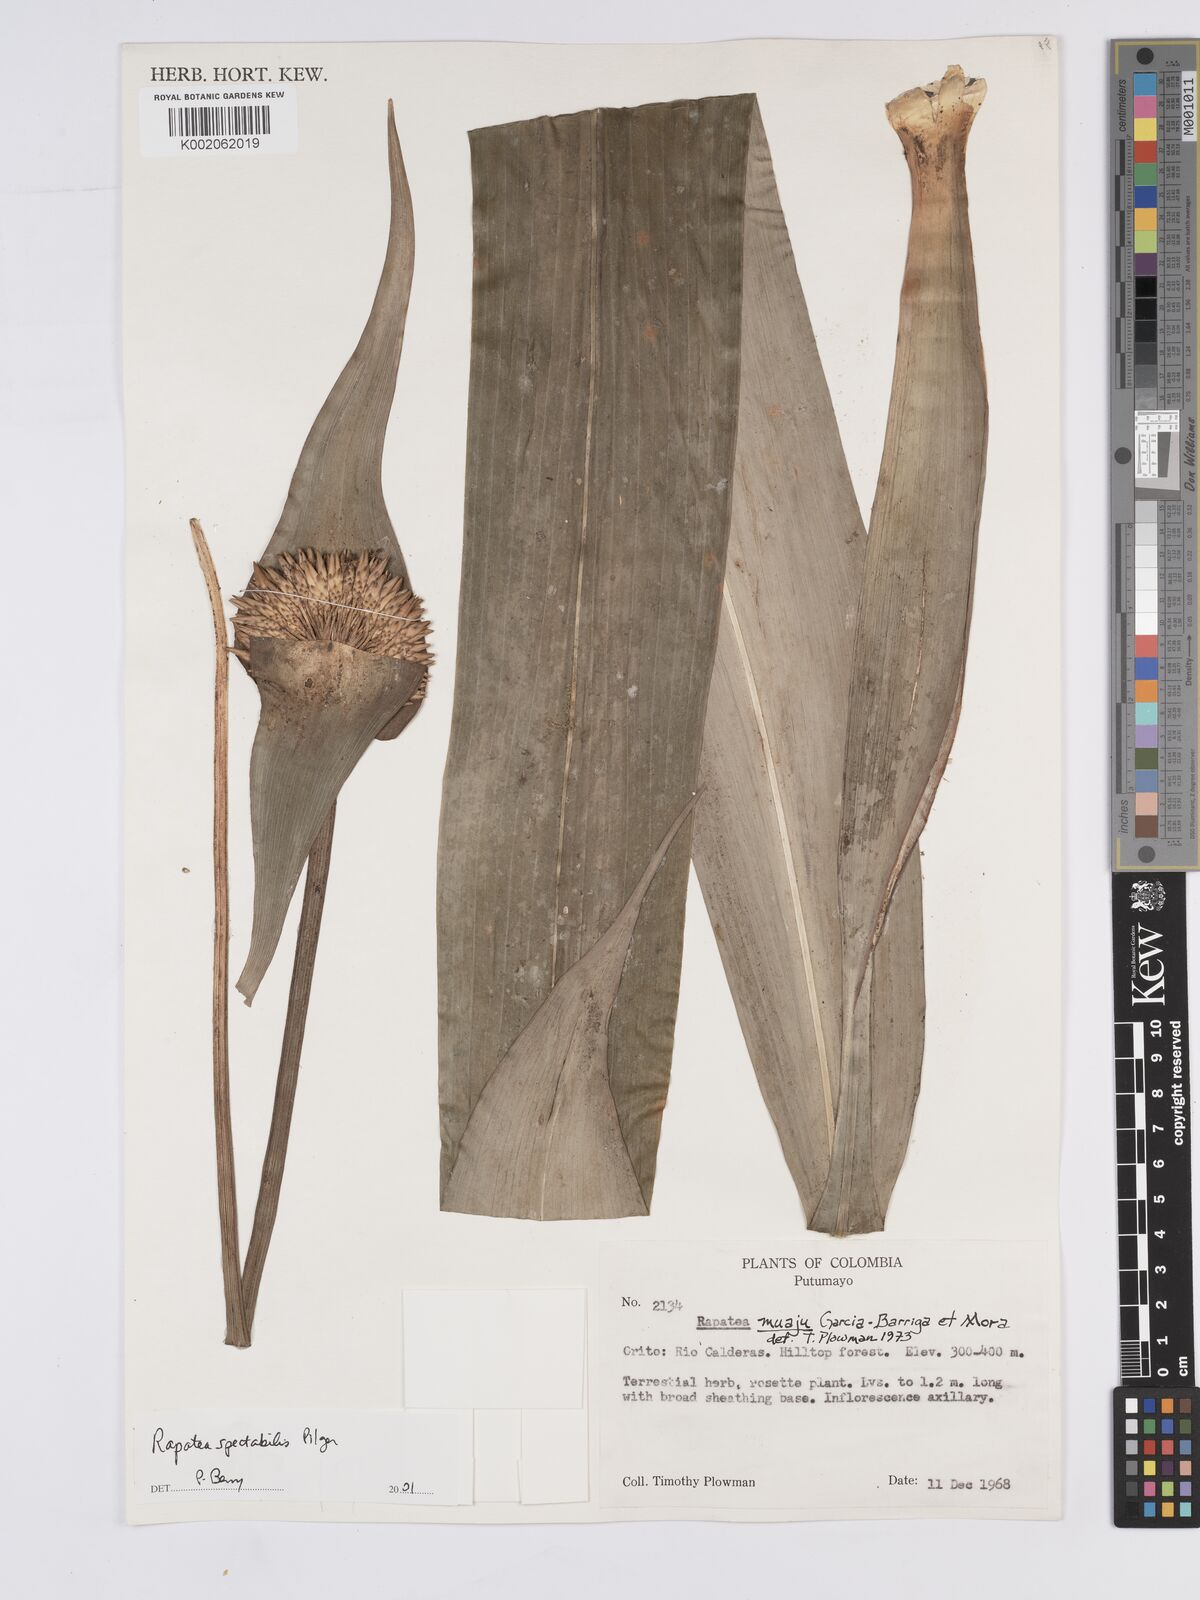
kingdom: Plantae
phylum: Tracheophyta
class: Liliopsida
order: Poales
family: Rapateaceae
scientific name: Rapateaceae
